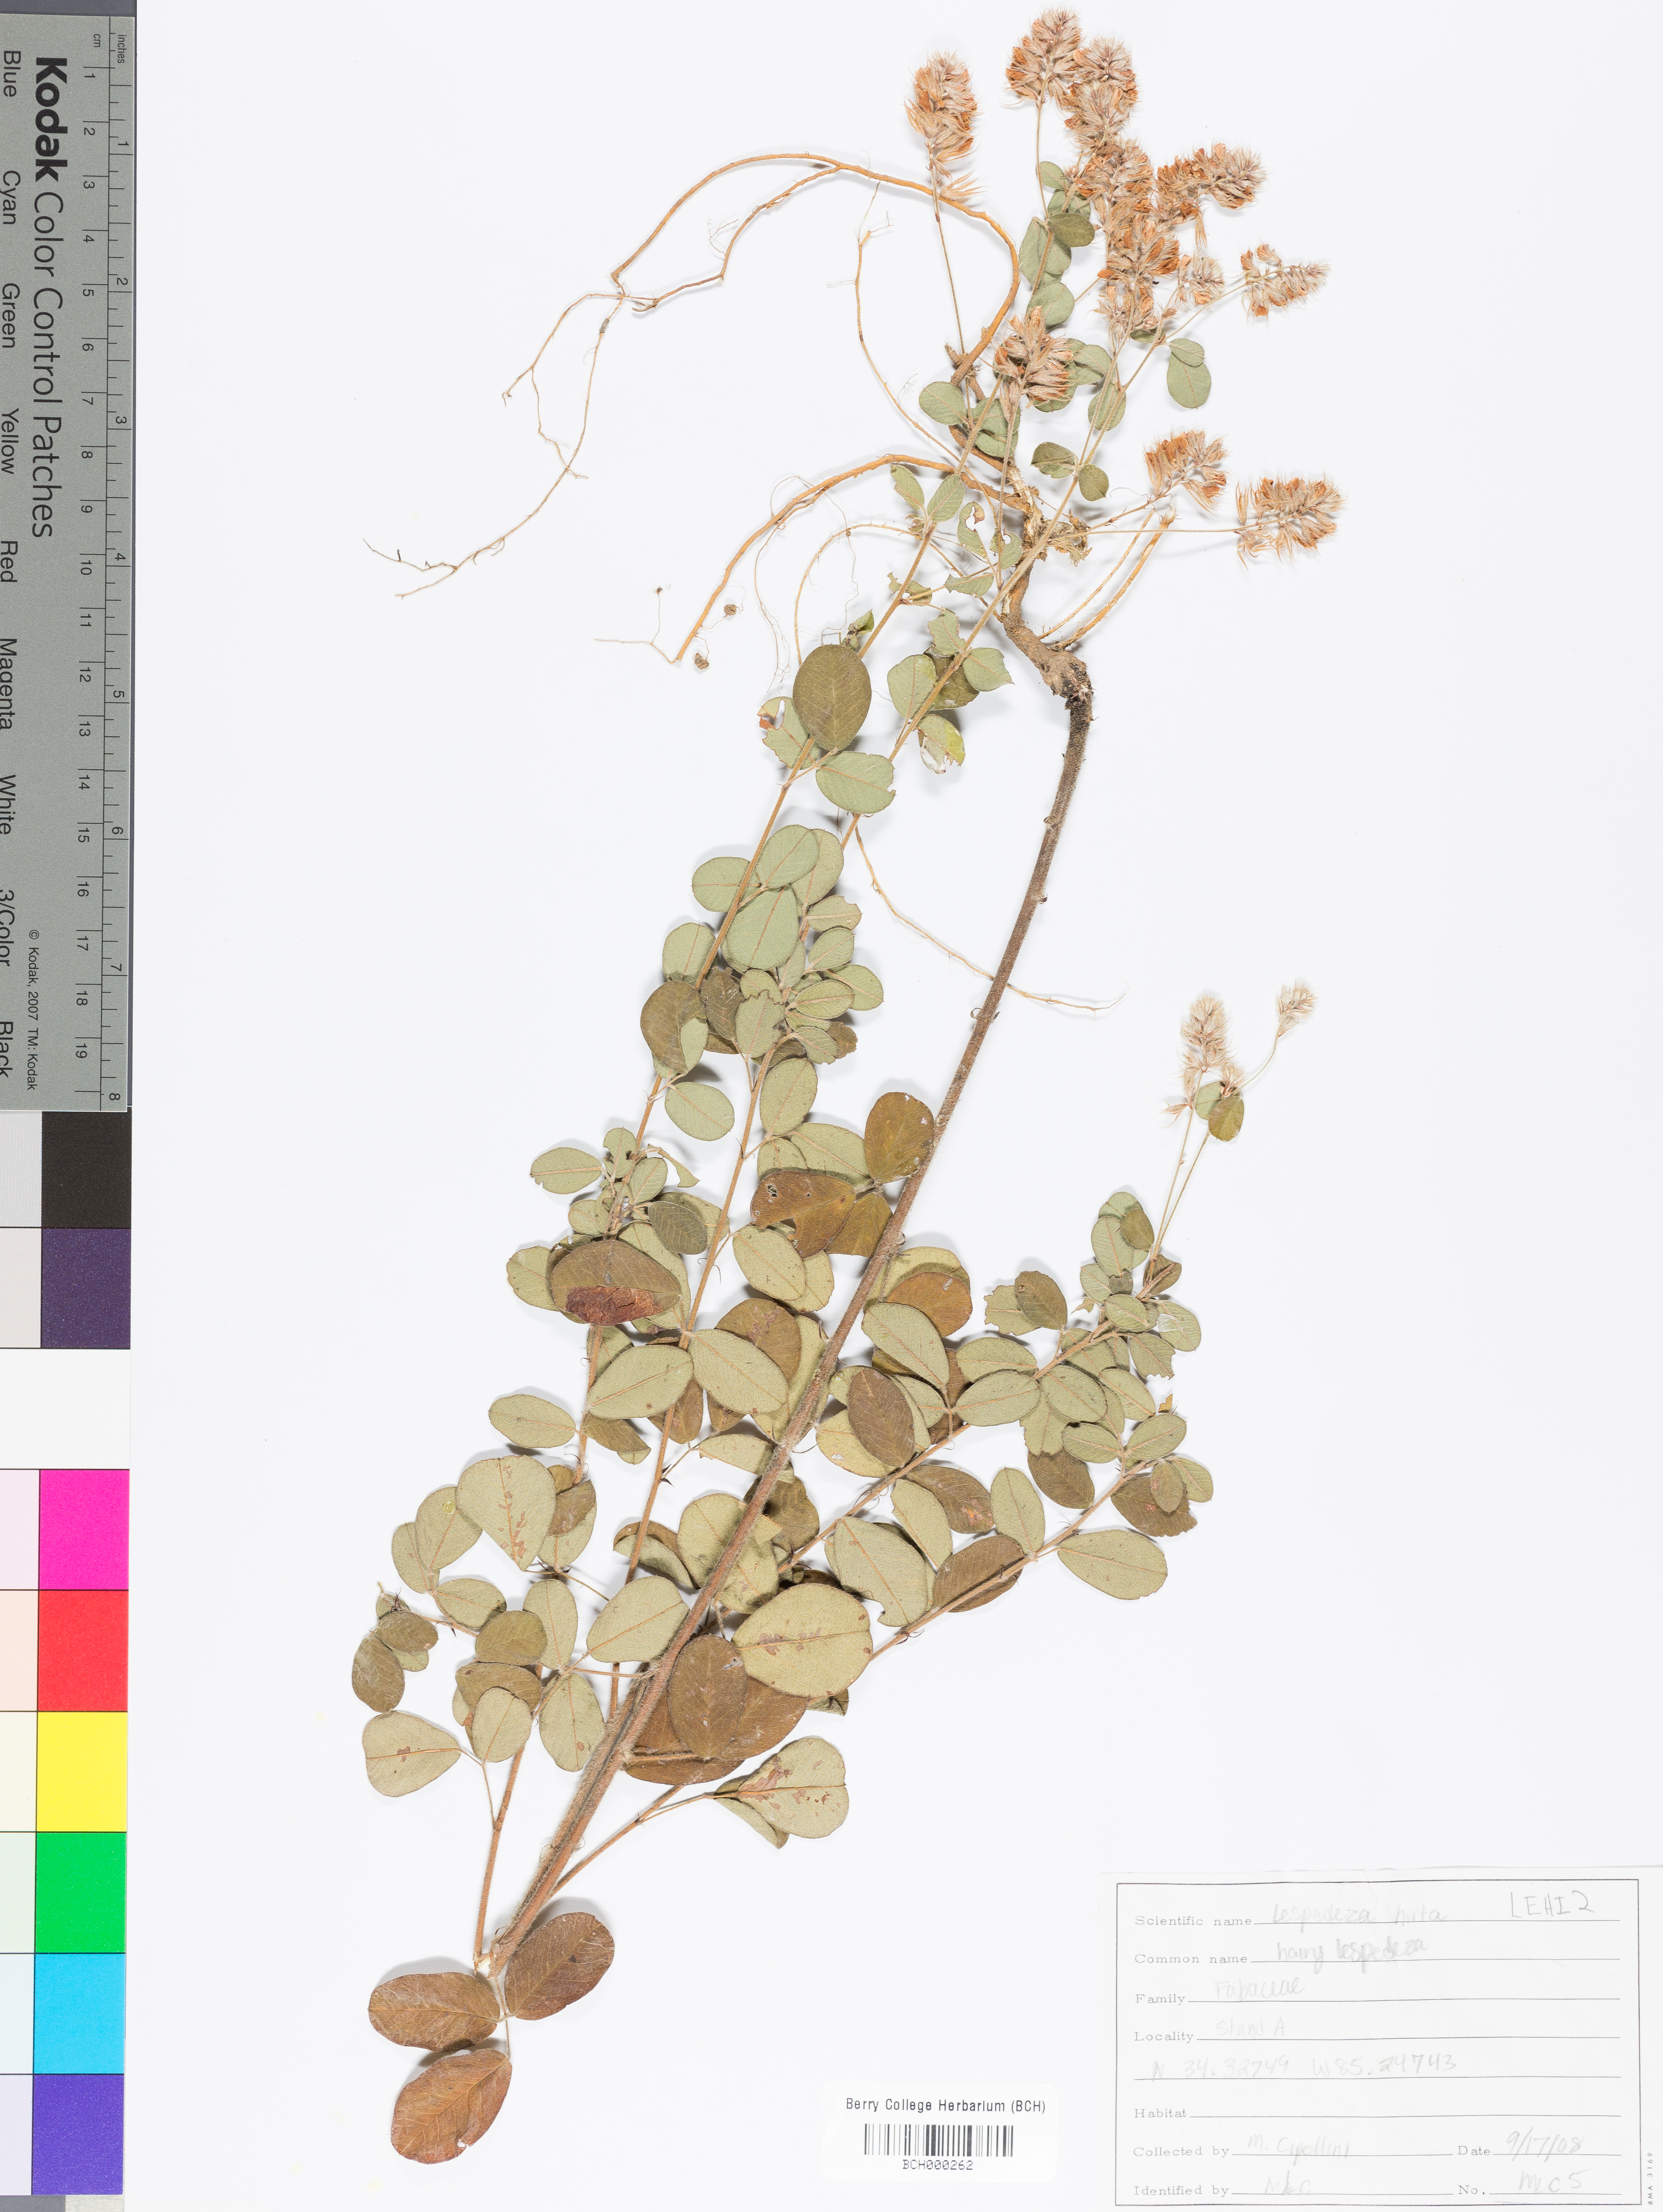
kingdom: Plantae
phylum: Tracheophyta
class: Magnoliopsida
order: Fabales
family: Fabaceae
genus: Lespedeza
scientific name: Lespedeza hirta
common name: Hairy lespedeza
